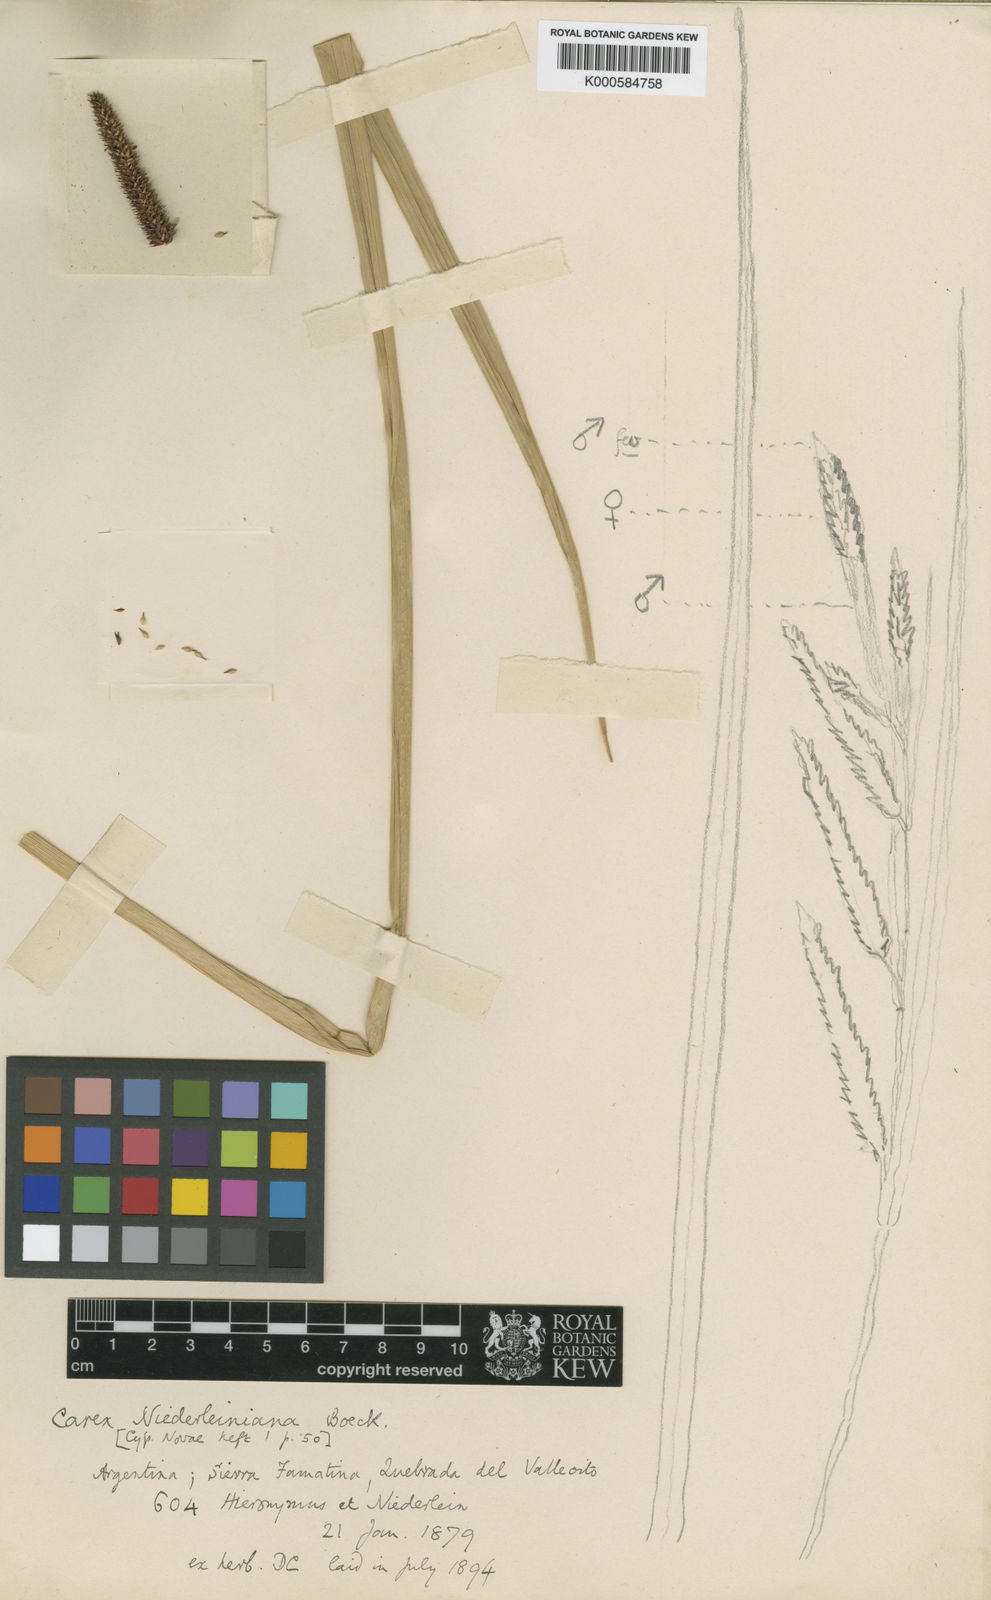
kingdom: Plantae
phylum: Tracheophyta
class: Liliopsida
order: Poales
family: Cyperaceae
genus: Carex
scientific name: Carex acutata
